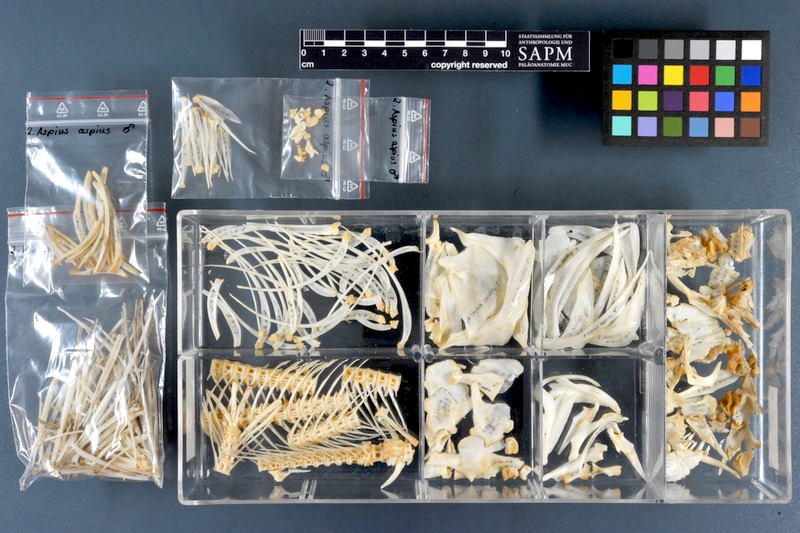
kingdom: Animalia
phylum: Chordata
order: Cypriniformes
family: Cyprinidae
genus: Leuciscus
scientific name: Leuciscus aspius
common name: Asp
